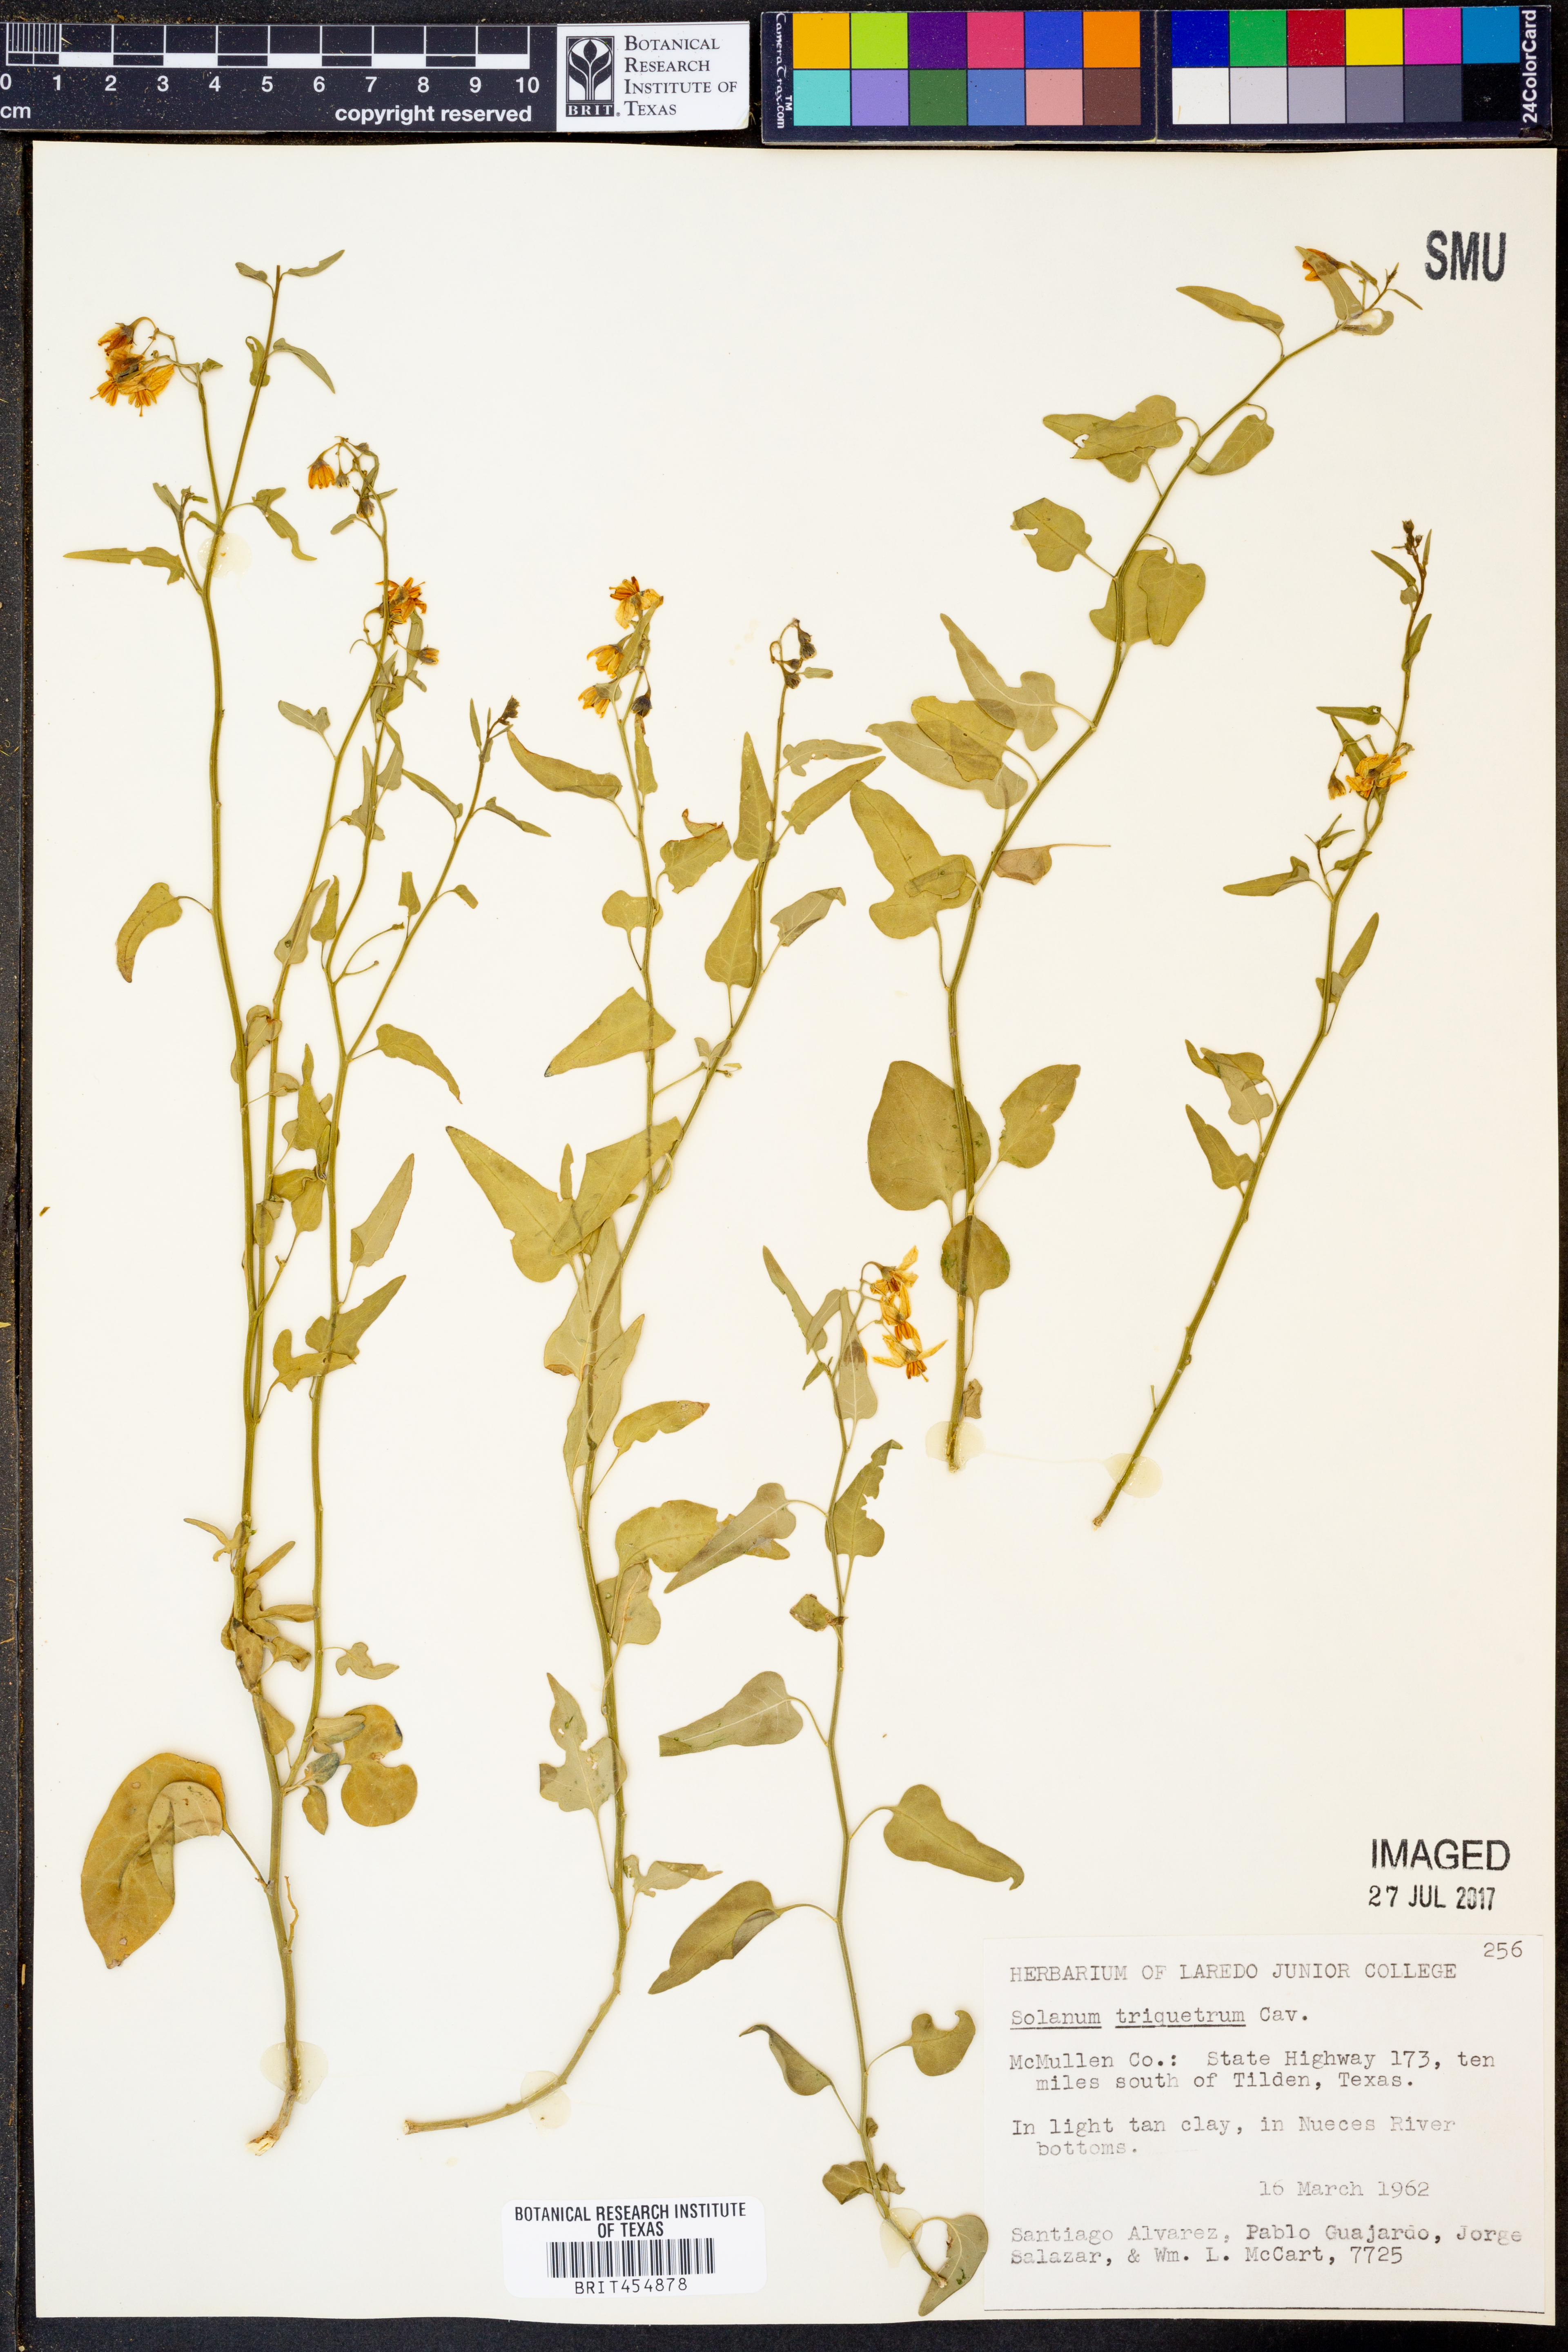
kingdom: Plantae
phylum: Tracheophyta
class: Magnoliopsida
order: Solanales
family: Solanaceae
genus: Solanum
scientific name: Solanum triquetrum
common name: Texas nightshade
